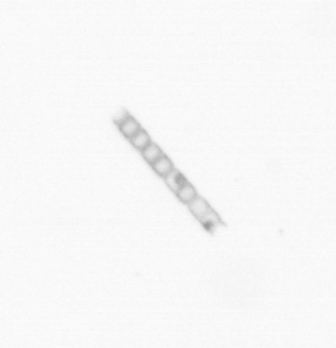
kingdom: Chromista
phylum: Ochrophyta
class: Bacillariophyceae
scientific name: Bacillariophyceae
